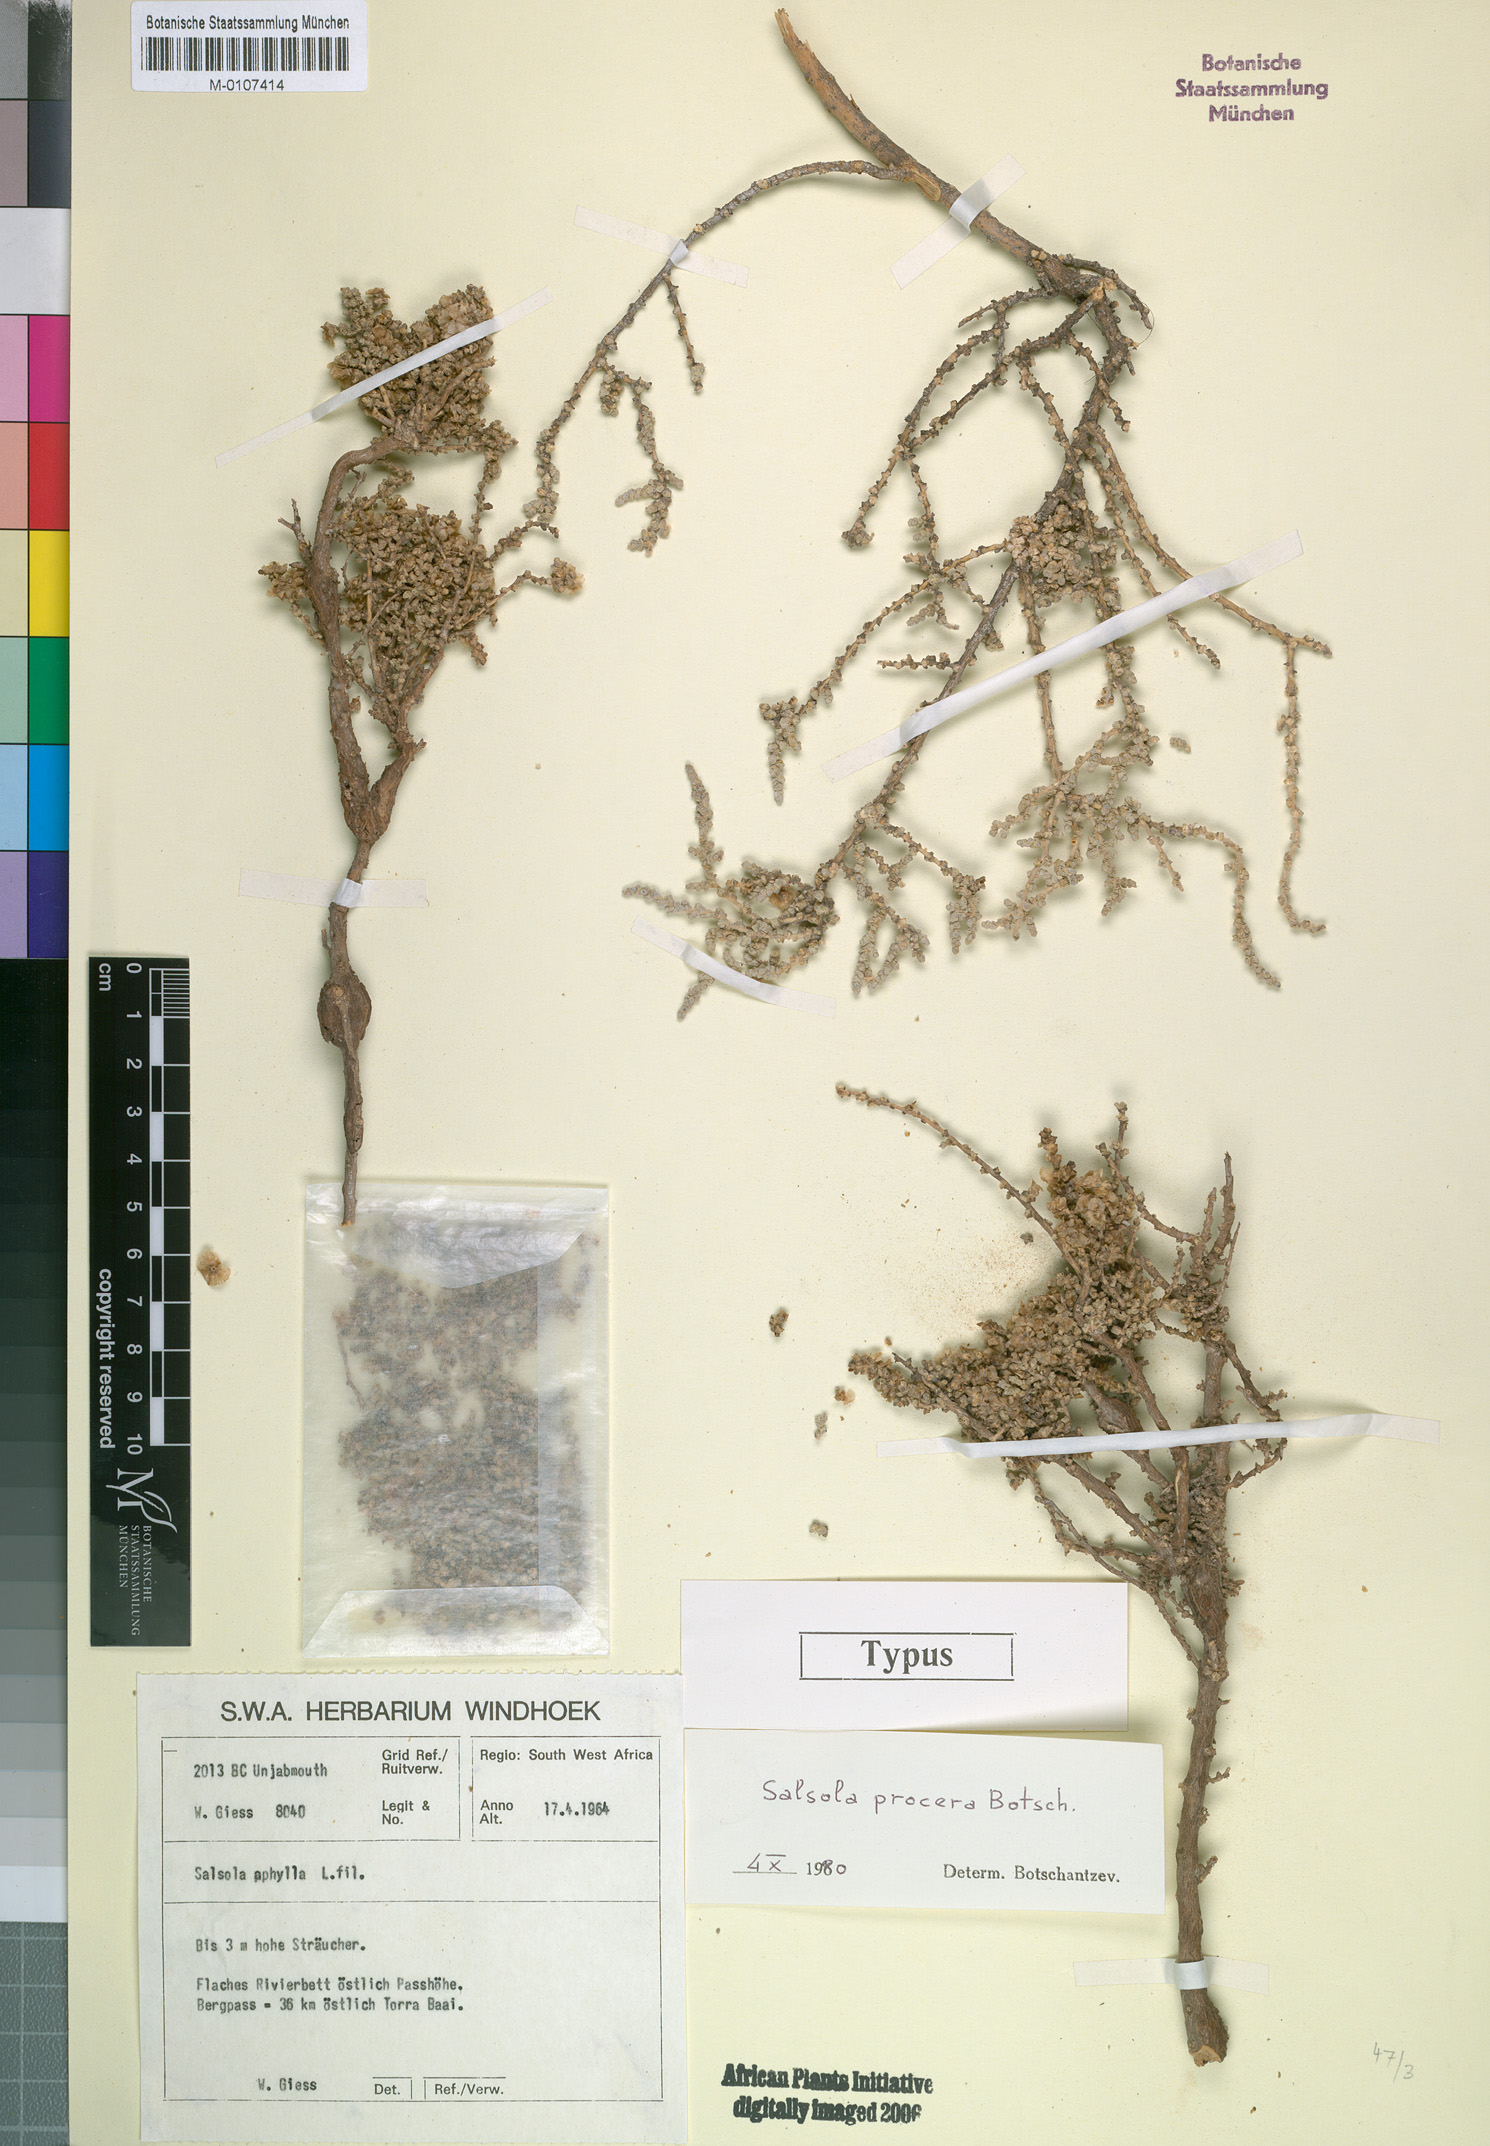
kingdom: Plantae
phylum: Tracheophyta
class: Magnoliopsida
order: Caryophyllales
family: Amaranthaceae
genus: Caroxylon
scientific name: Caroxylon procerum
